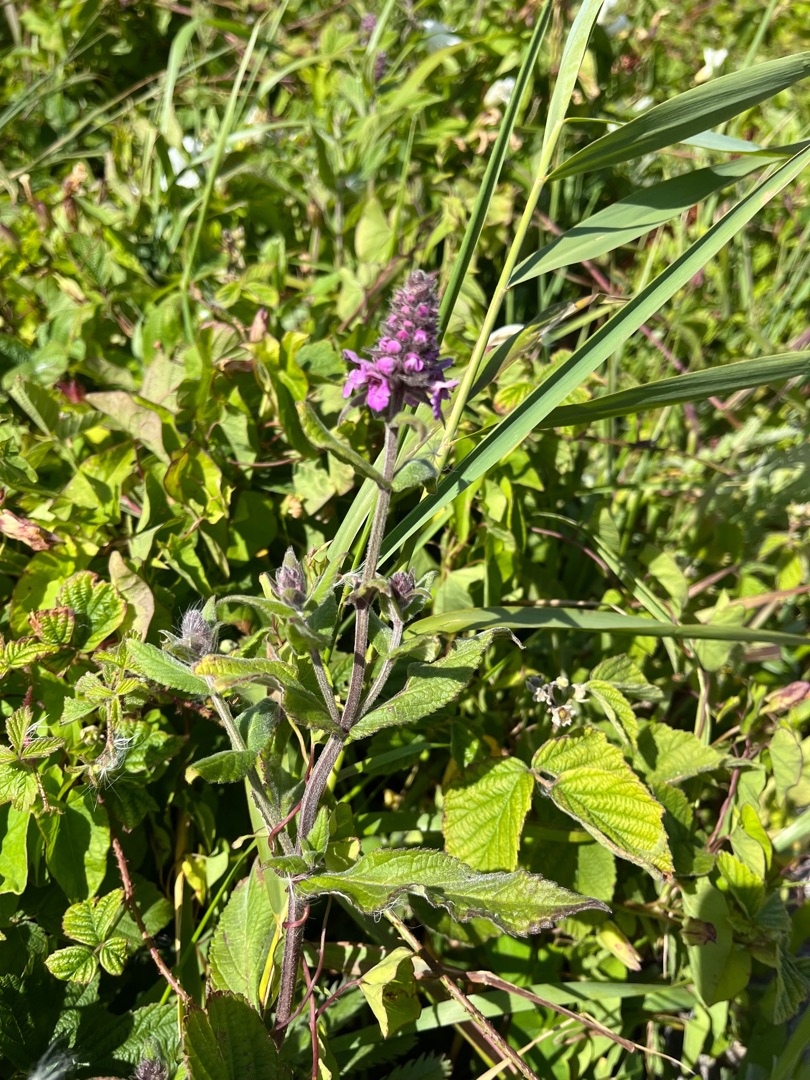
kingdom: Plantae
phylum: Tracheophyta
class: Magnoliopsida
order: Lamiales
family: Lamiaceae
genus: Stachys
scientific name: Stachys palustris
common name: Kær-galtetand
